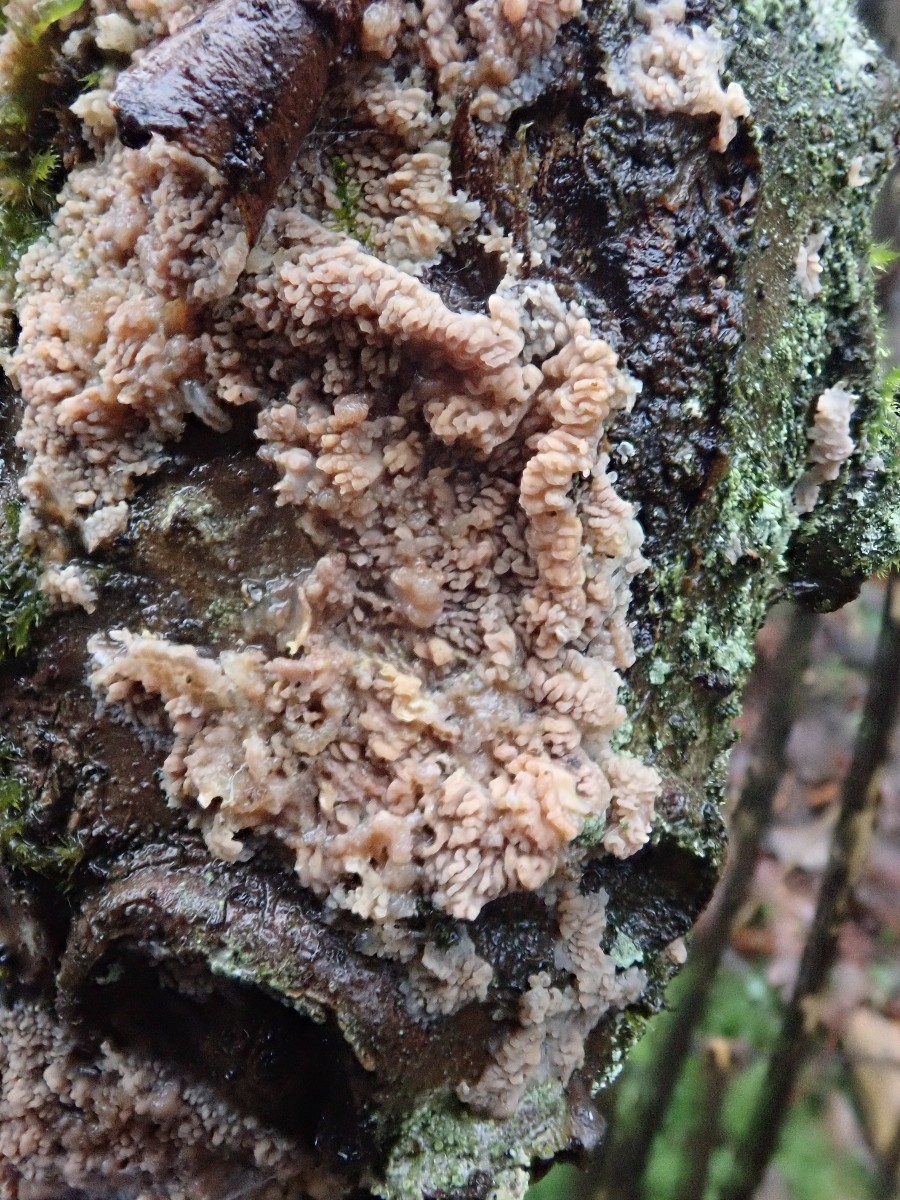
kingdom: Fungi
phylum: Basidiomycota
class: Agaricomycetes
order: Polyporales
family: Meruliaceae
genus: Phlebia
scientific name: Phlebia radiata
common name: stråle-åresvamp
